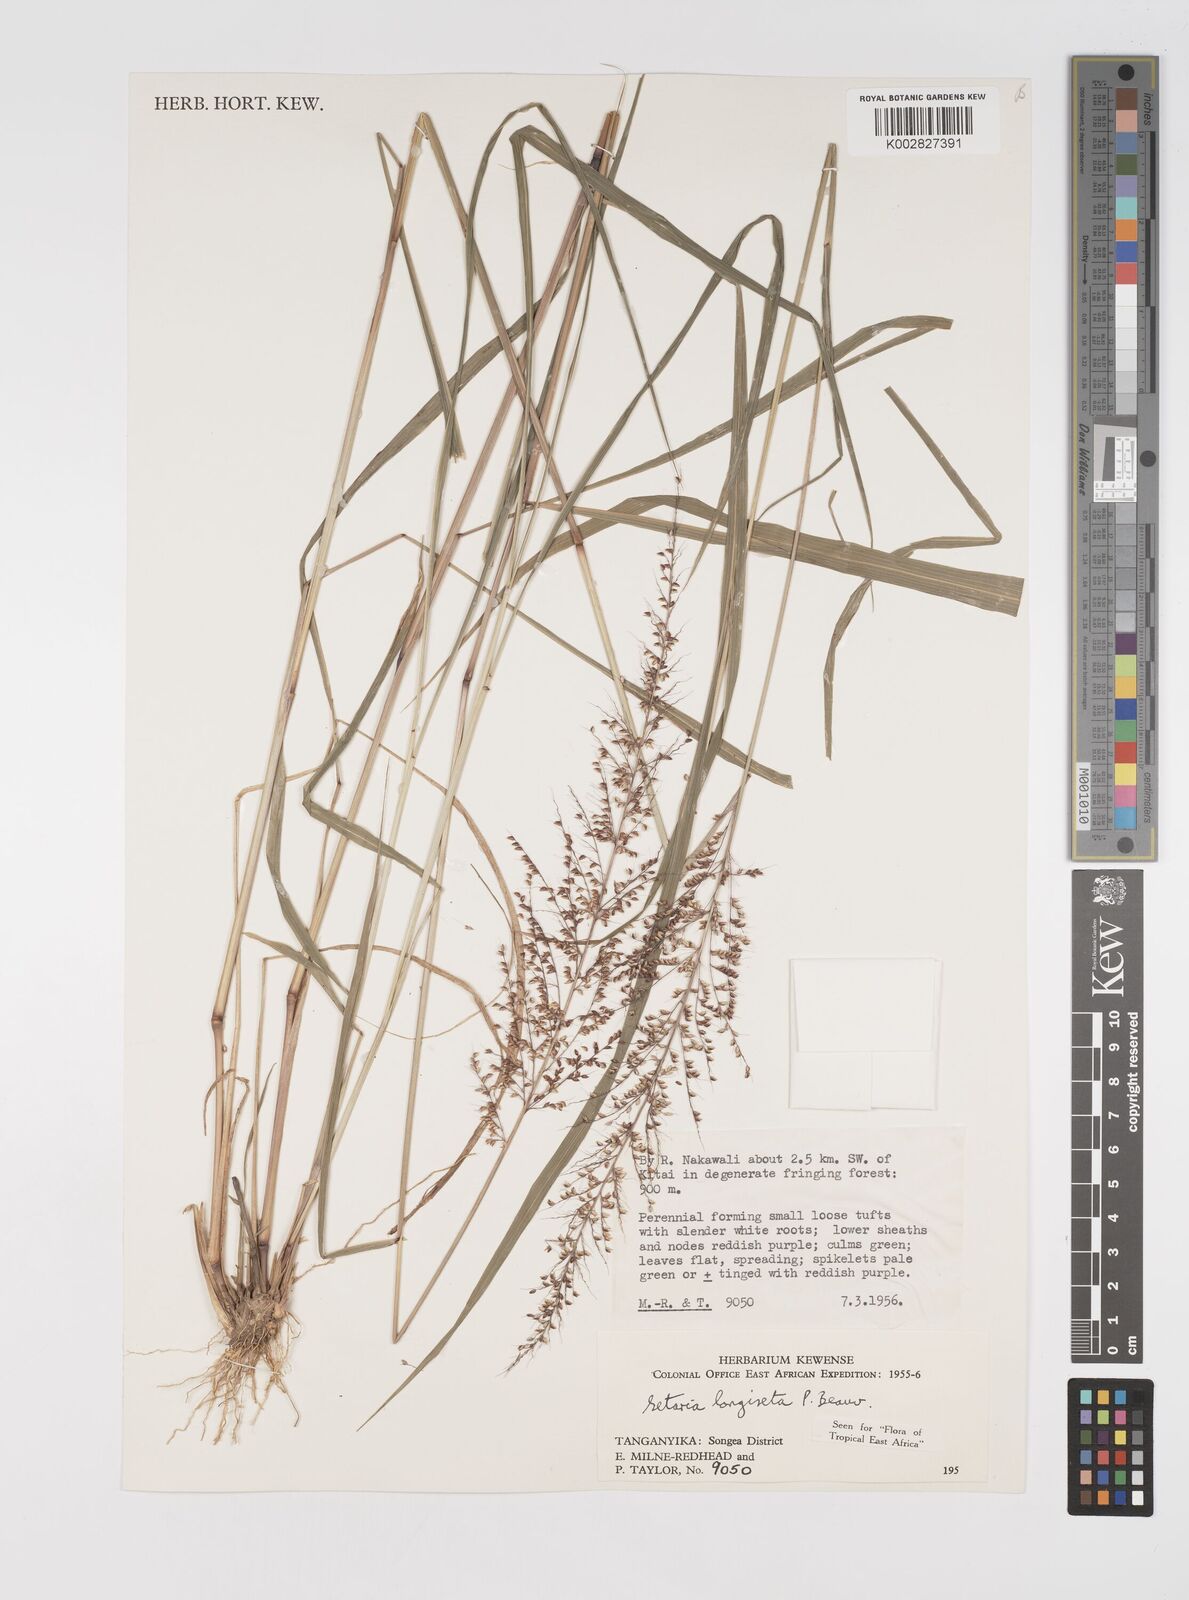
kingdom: Plantae
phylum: Tracheophyta
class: Liliopsida
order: Poales
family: Poaceae
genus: Setaria
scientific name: Setaria longiseta
